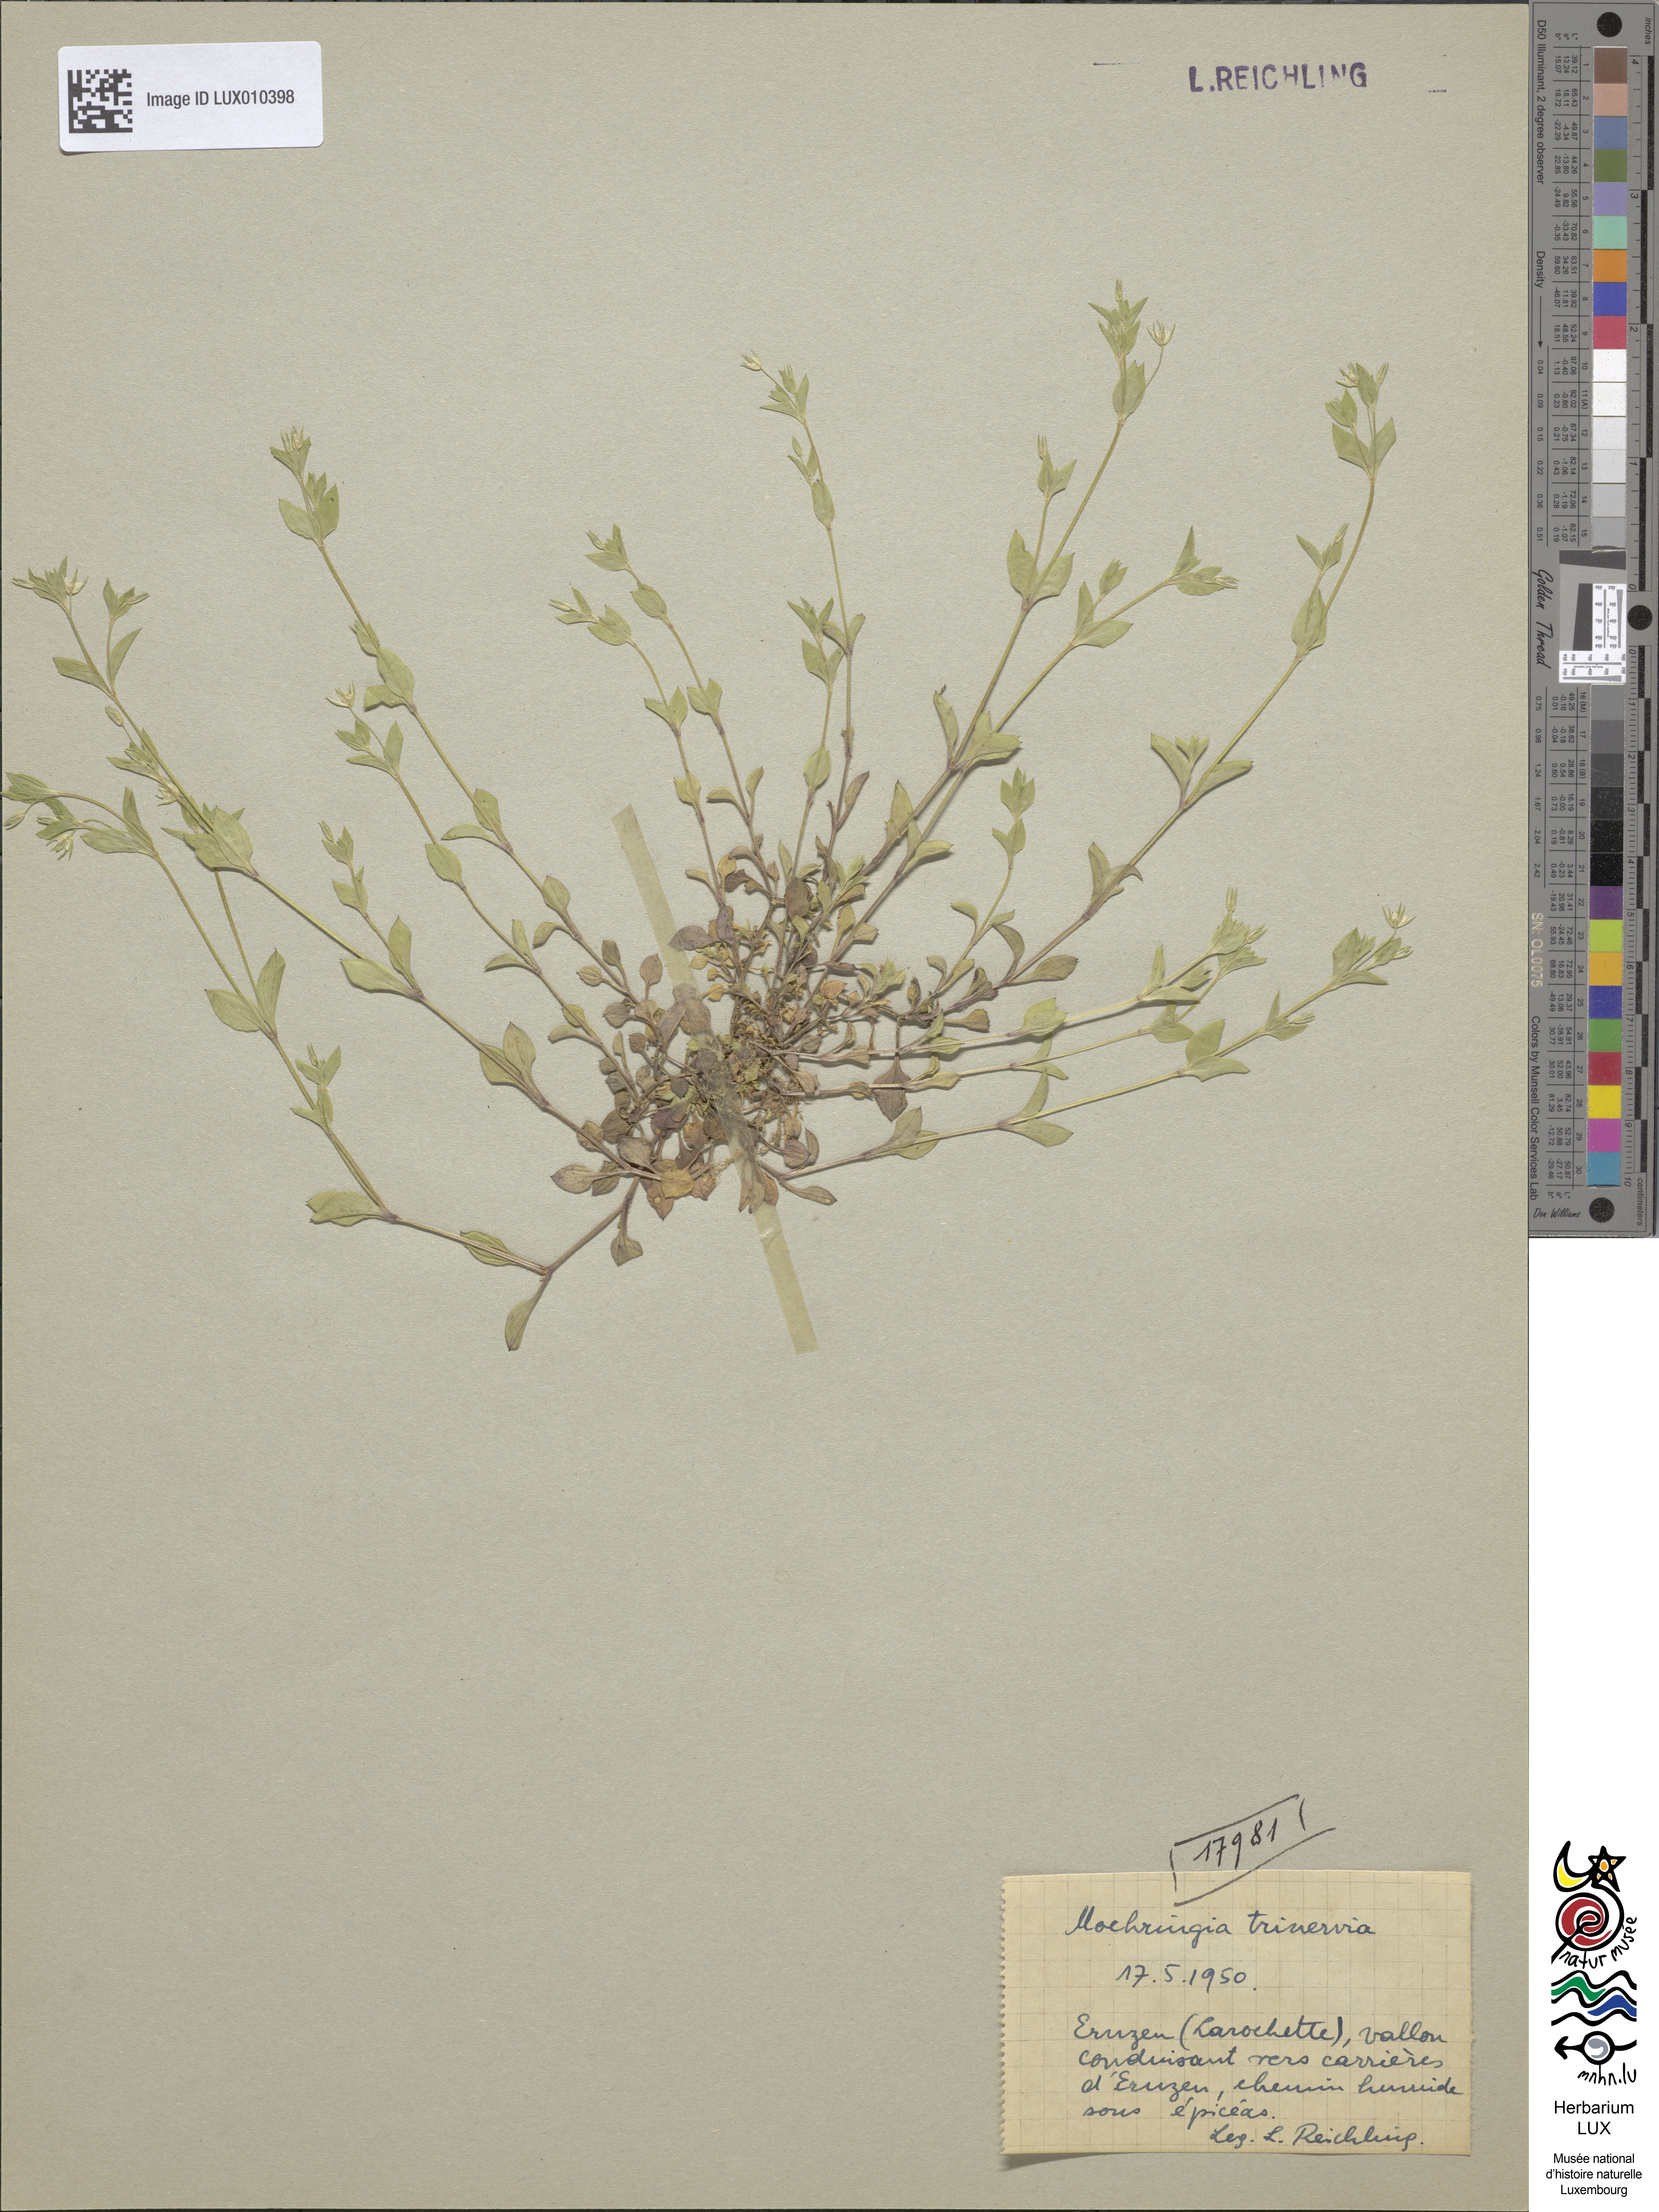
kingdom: Plantae
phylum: Tracheophyta
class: Magnoliopsida
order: Caryophyllales
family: Caryophyllaceae
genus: Moehringia
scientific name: Moehringia trinervia
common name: Three-nerved sandwort
